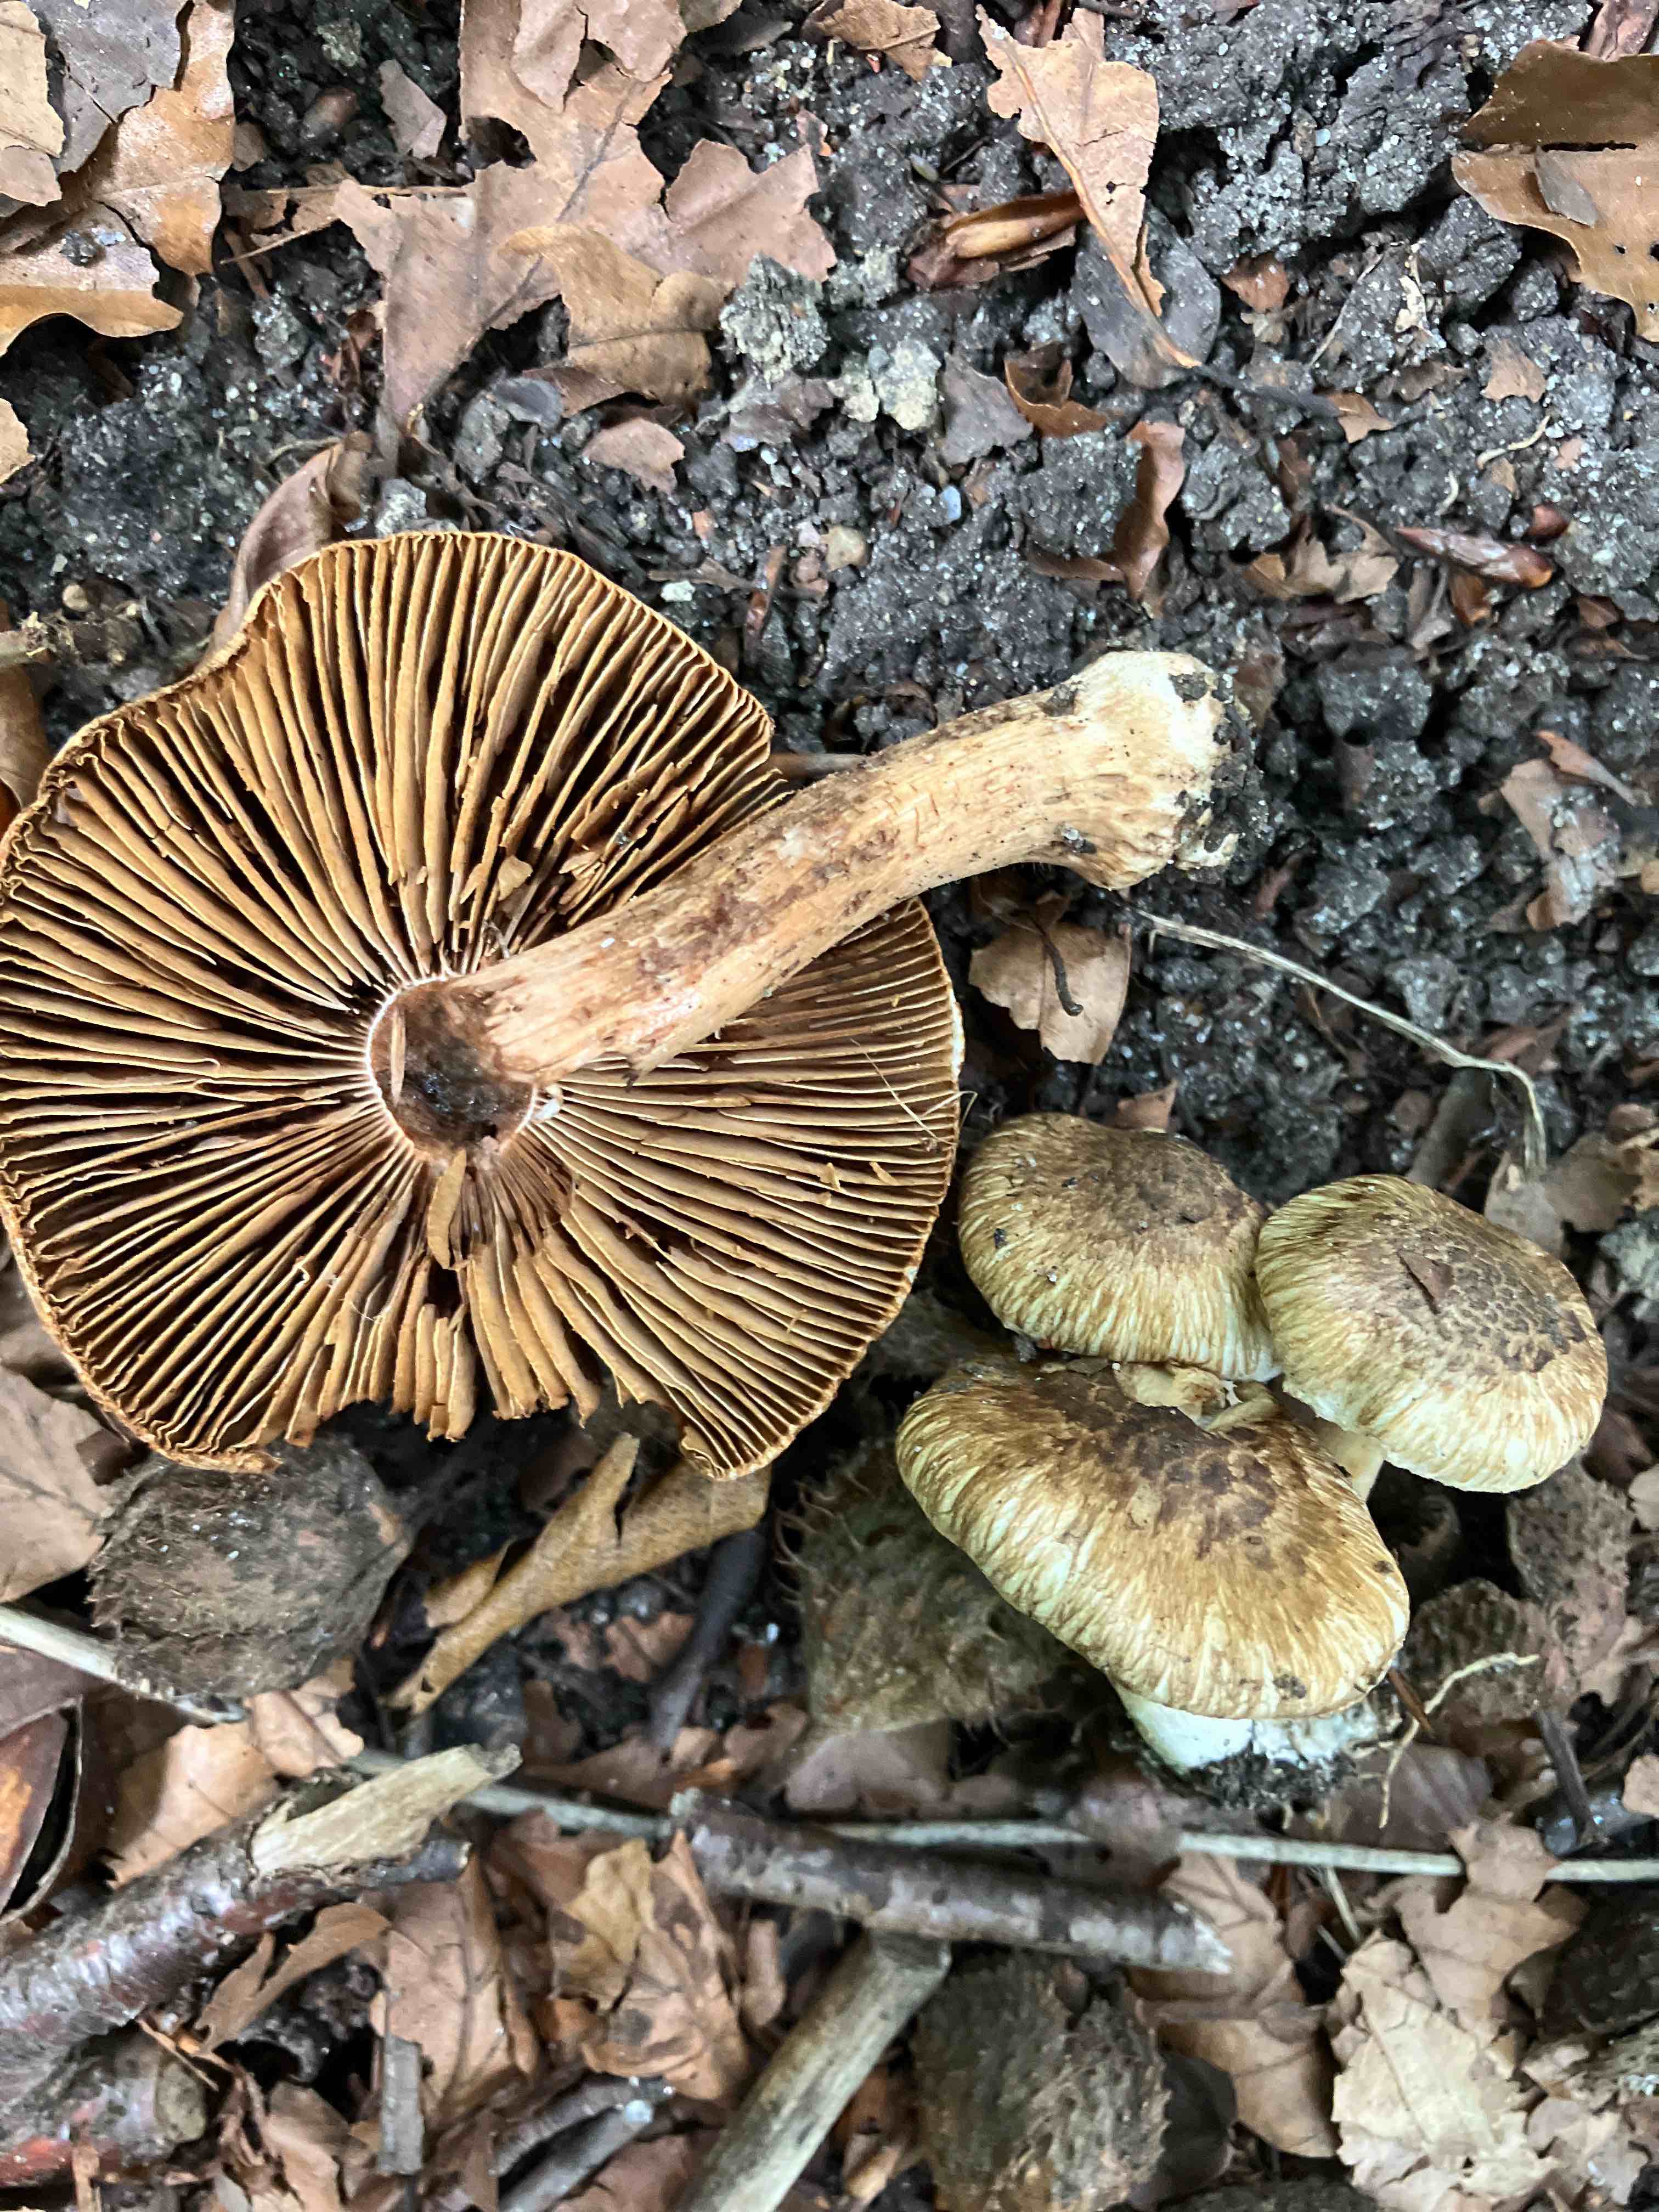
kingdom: Fungi
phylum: Basidiomycota
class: Agaricomycetes
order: Agaricales
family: Inocybaceae
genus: Inocybe
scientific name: Inocybe corydalina
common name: grønpuklet trævlhat
